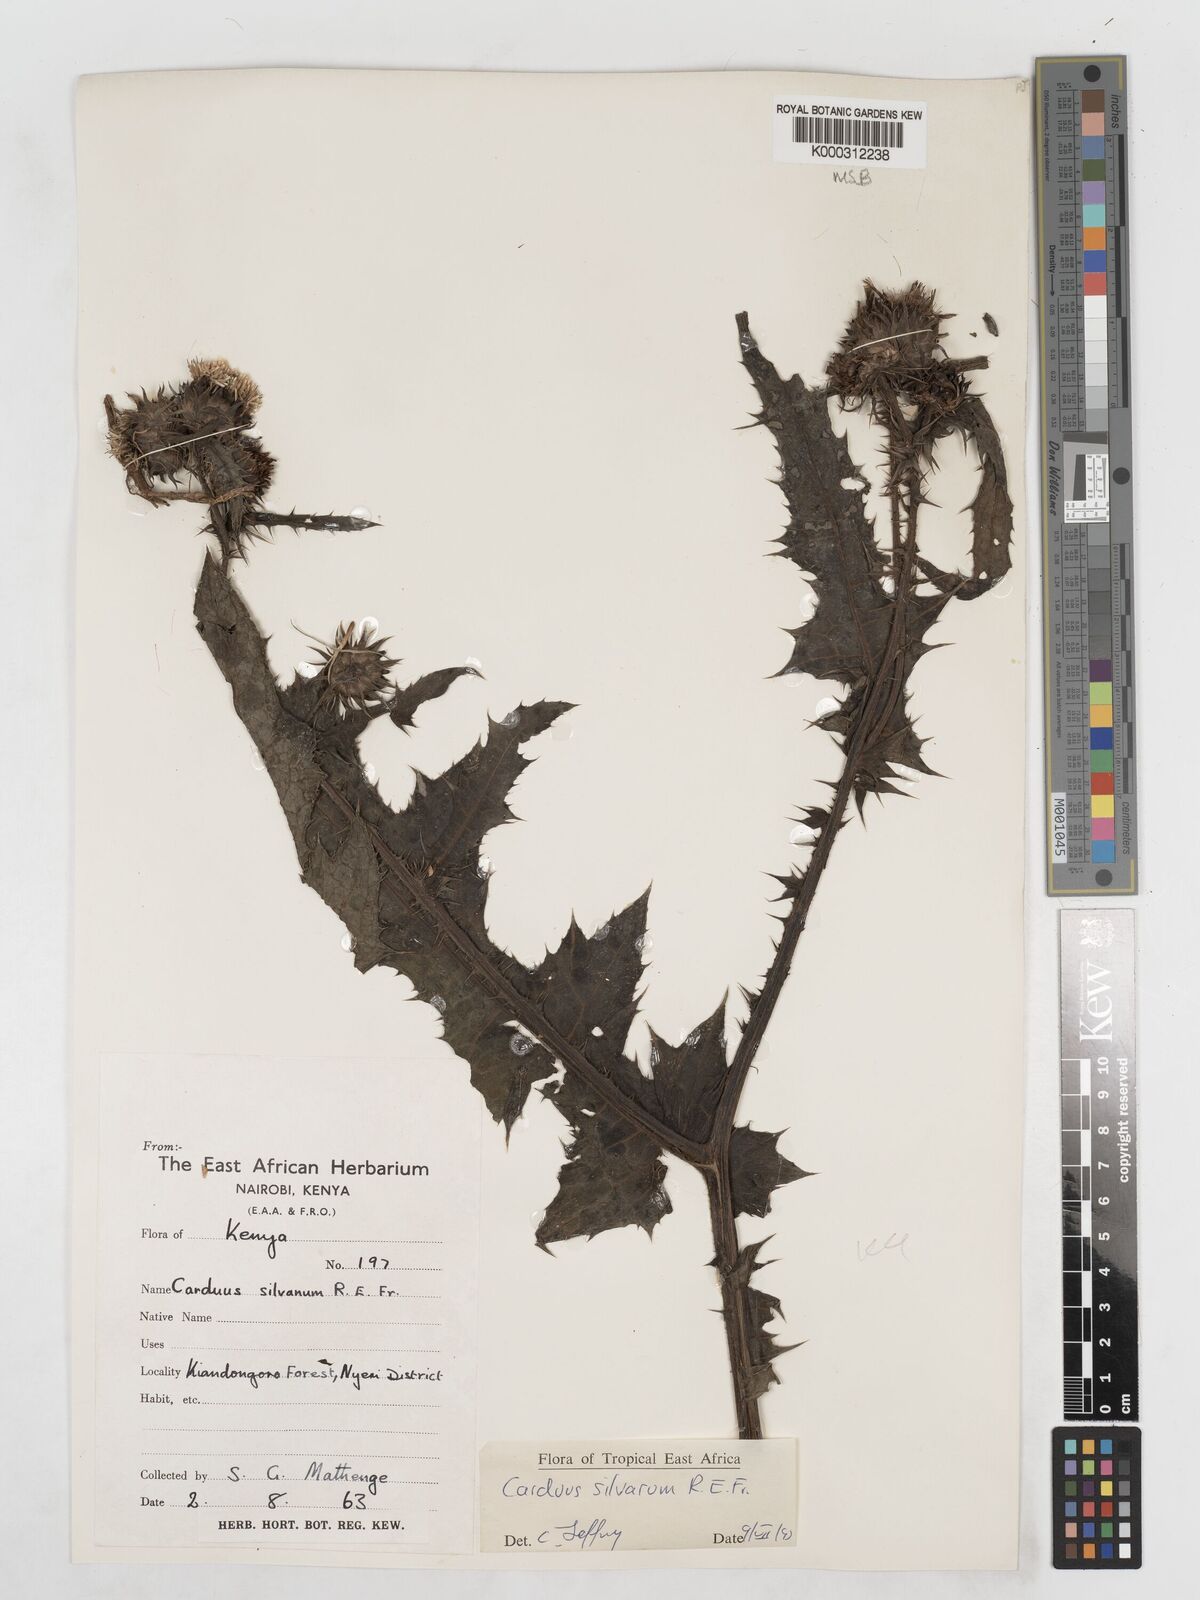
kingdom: Plantae
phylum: Tracheophyta
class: Magnoliopsida
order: Asterales
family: Asteraceae
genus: Carduus
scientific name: Carduus silvarum
